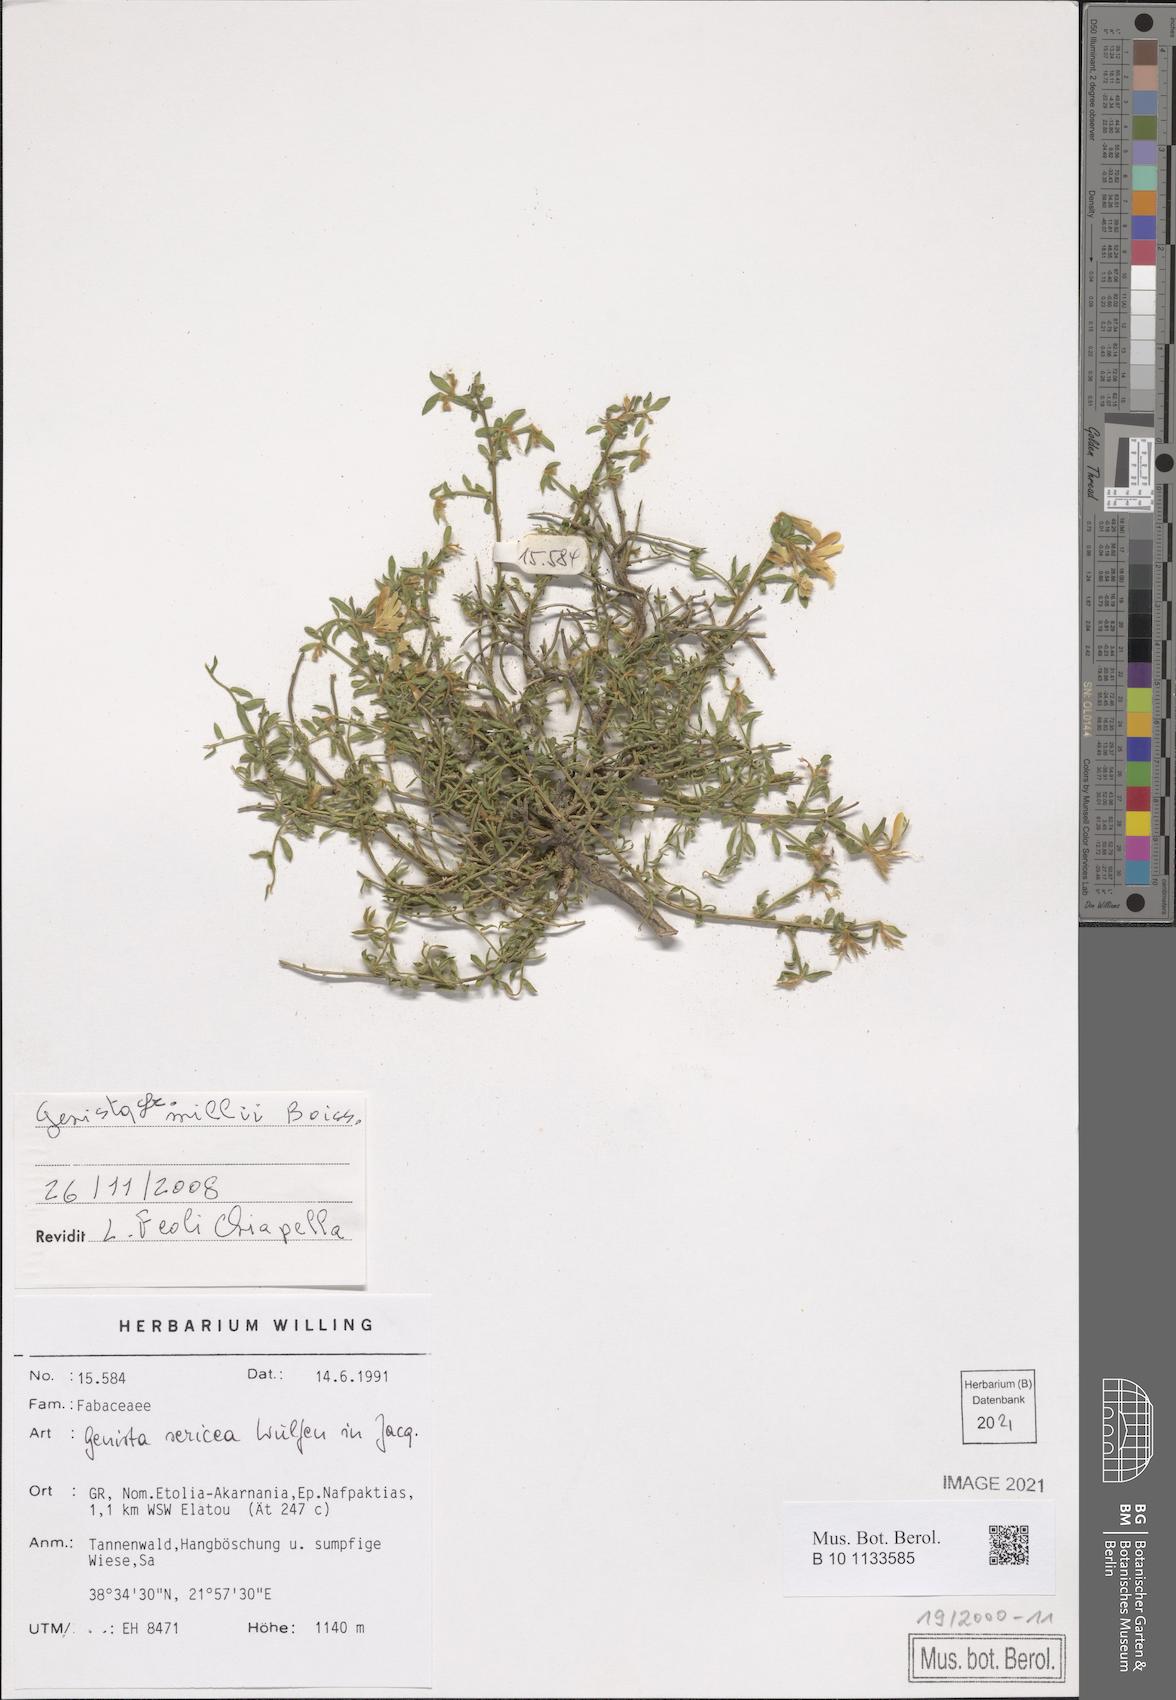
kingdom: Plantae
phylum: Tracheophyta
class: Magnoliopsida
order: Fabales
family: Fabaceae
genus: Genista
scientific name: Genista millii
